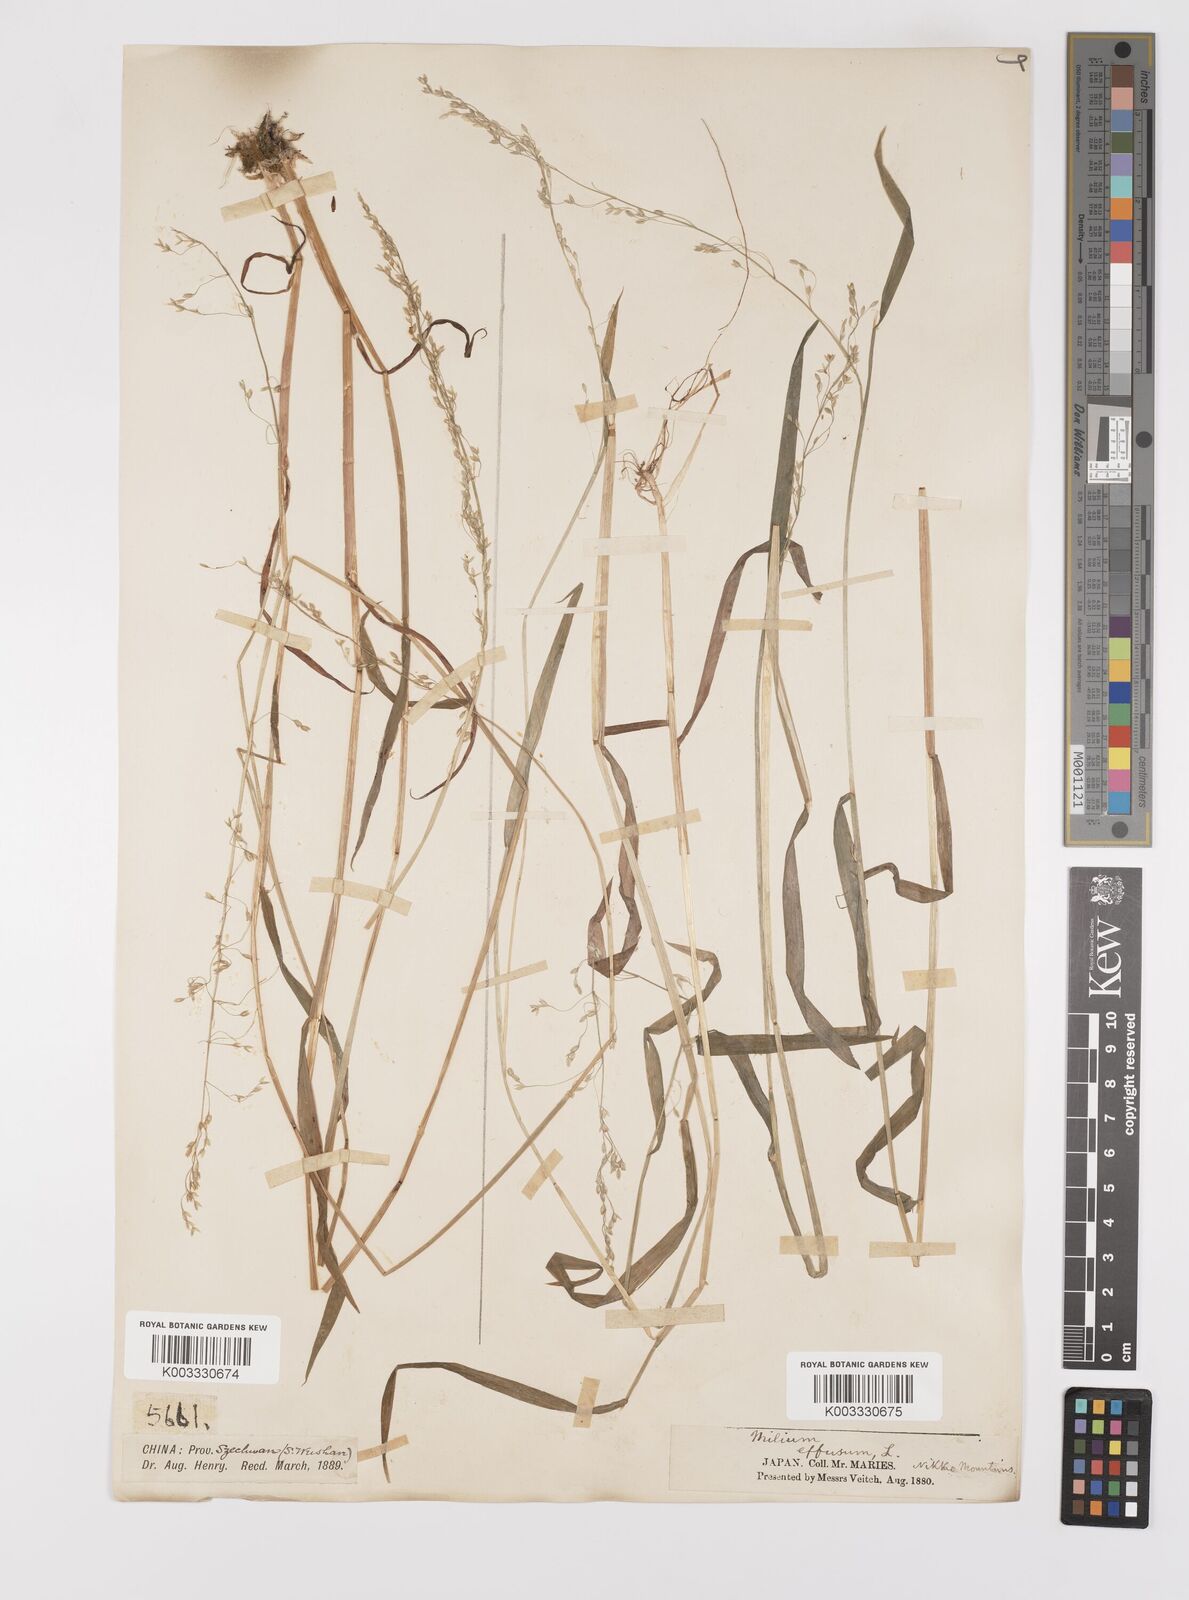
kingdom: Plantae
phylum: Tracheophyta
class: Liliopsida
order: Poales
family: Poaceae
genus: Milium
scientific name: Milium effusum
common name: Wood millet
